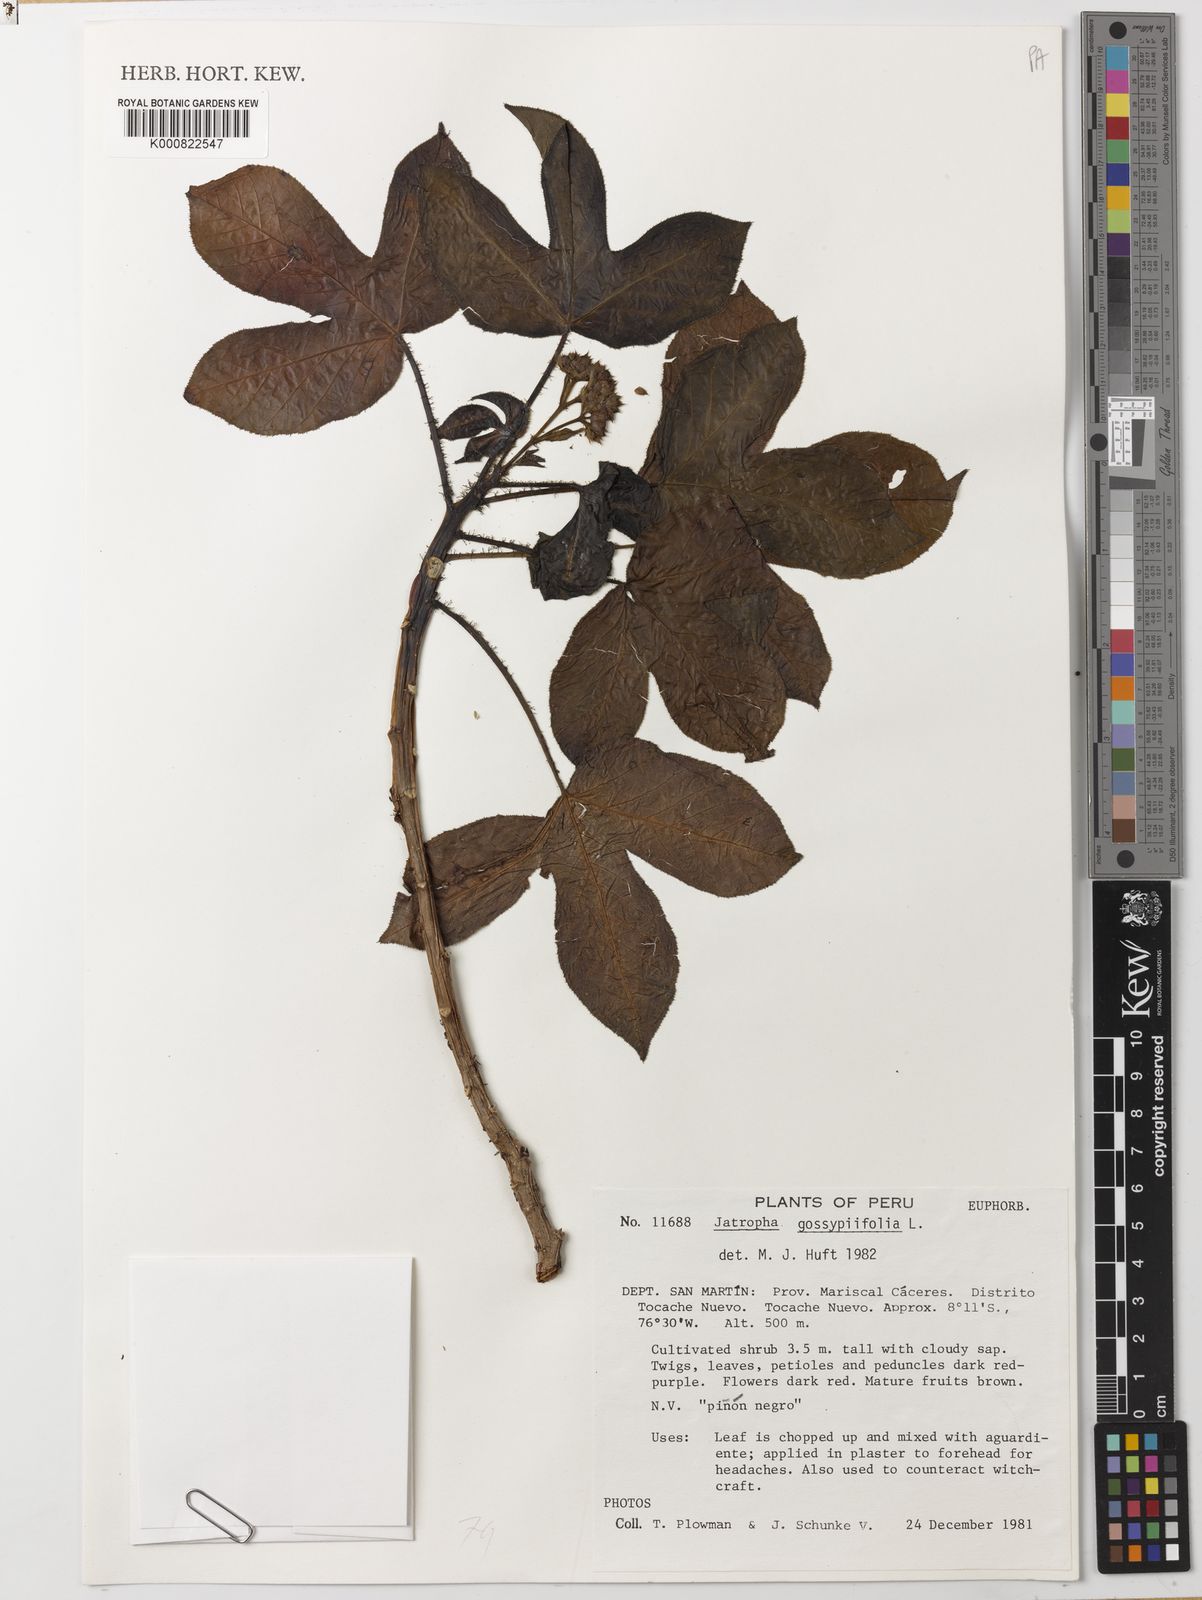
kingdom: Plantae
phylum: Tracheophyta
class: Magnoliopsida
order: Malpighiales
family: Euphorbiaceae
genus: Jatropha
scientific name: Jatropha gossypiifolia
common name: Bellyache bush
